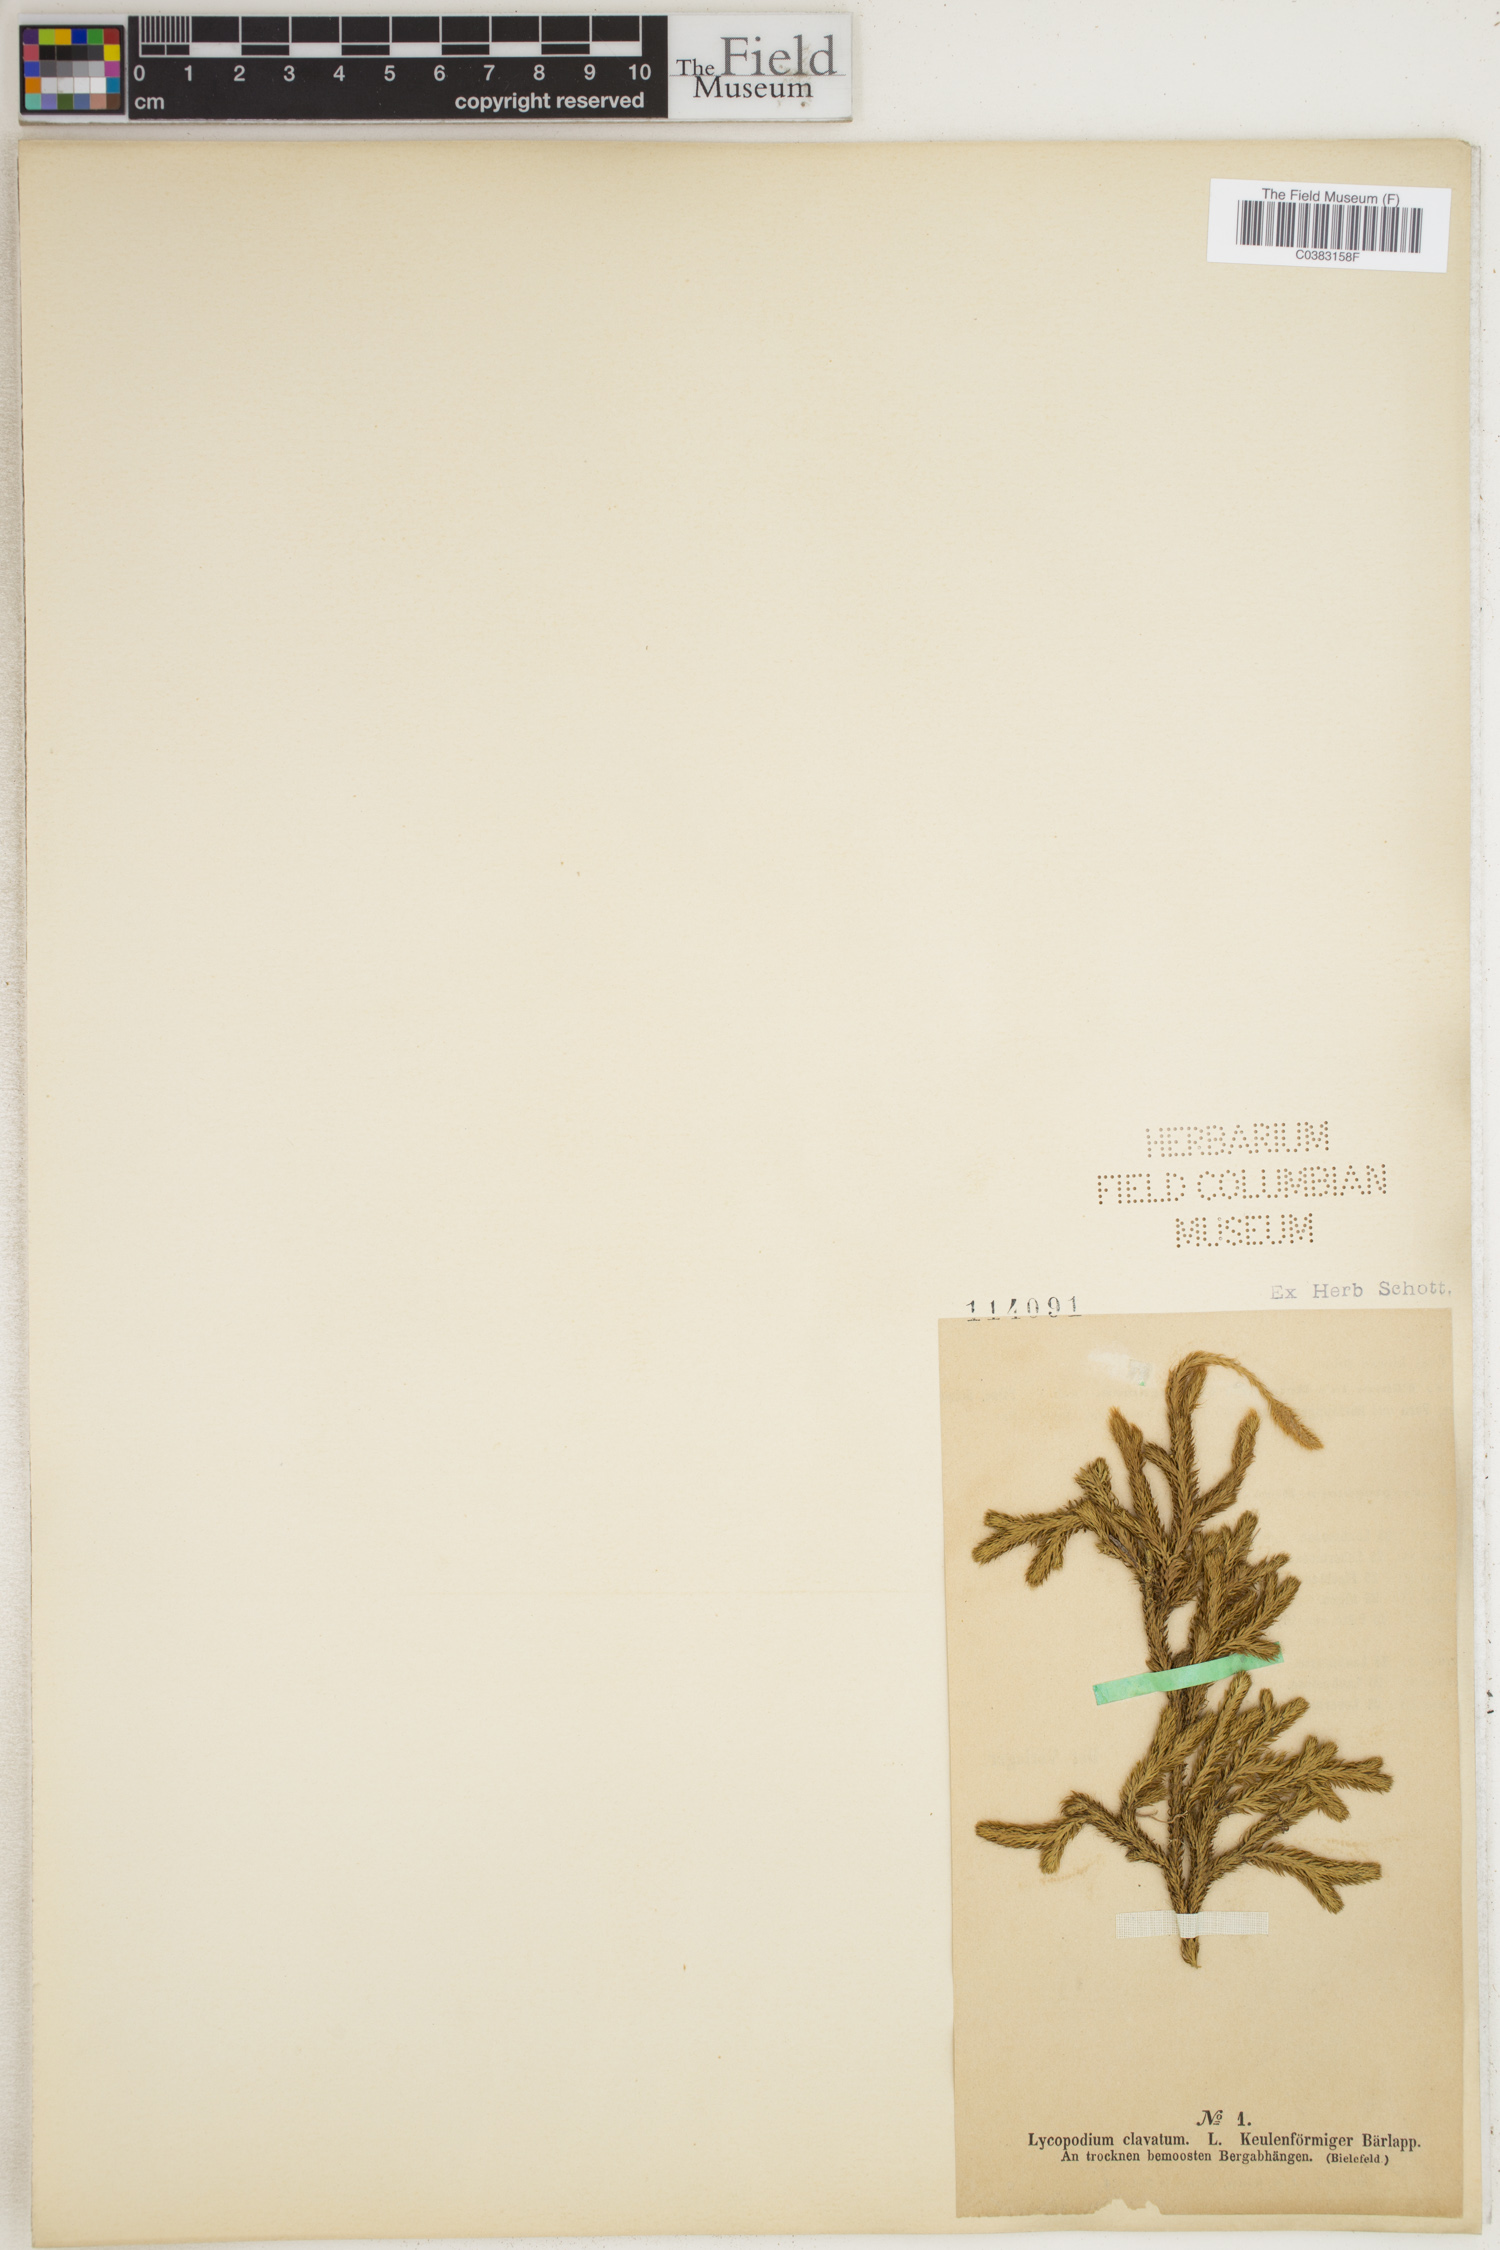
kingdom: Plantae
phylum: Tracheophyta
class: Lycopodiopsida
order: Lycopodiales
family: Lycopodiaceae
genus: Lycopodium
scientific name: Lycopodium clavatum
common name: Stag's-horn clubmoss
